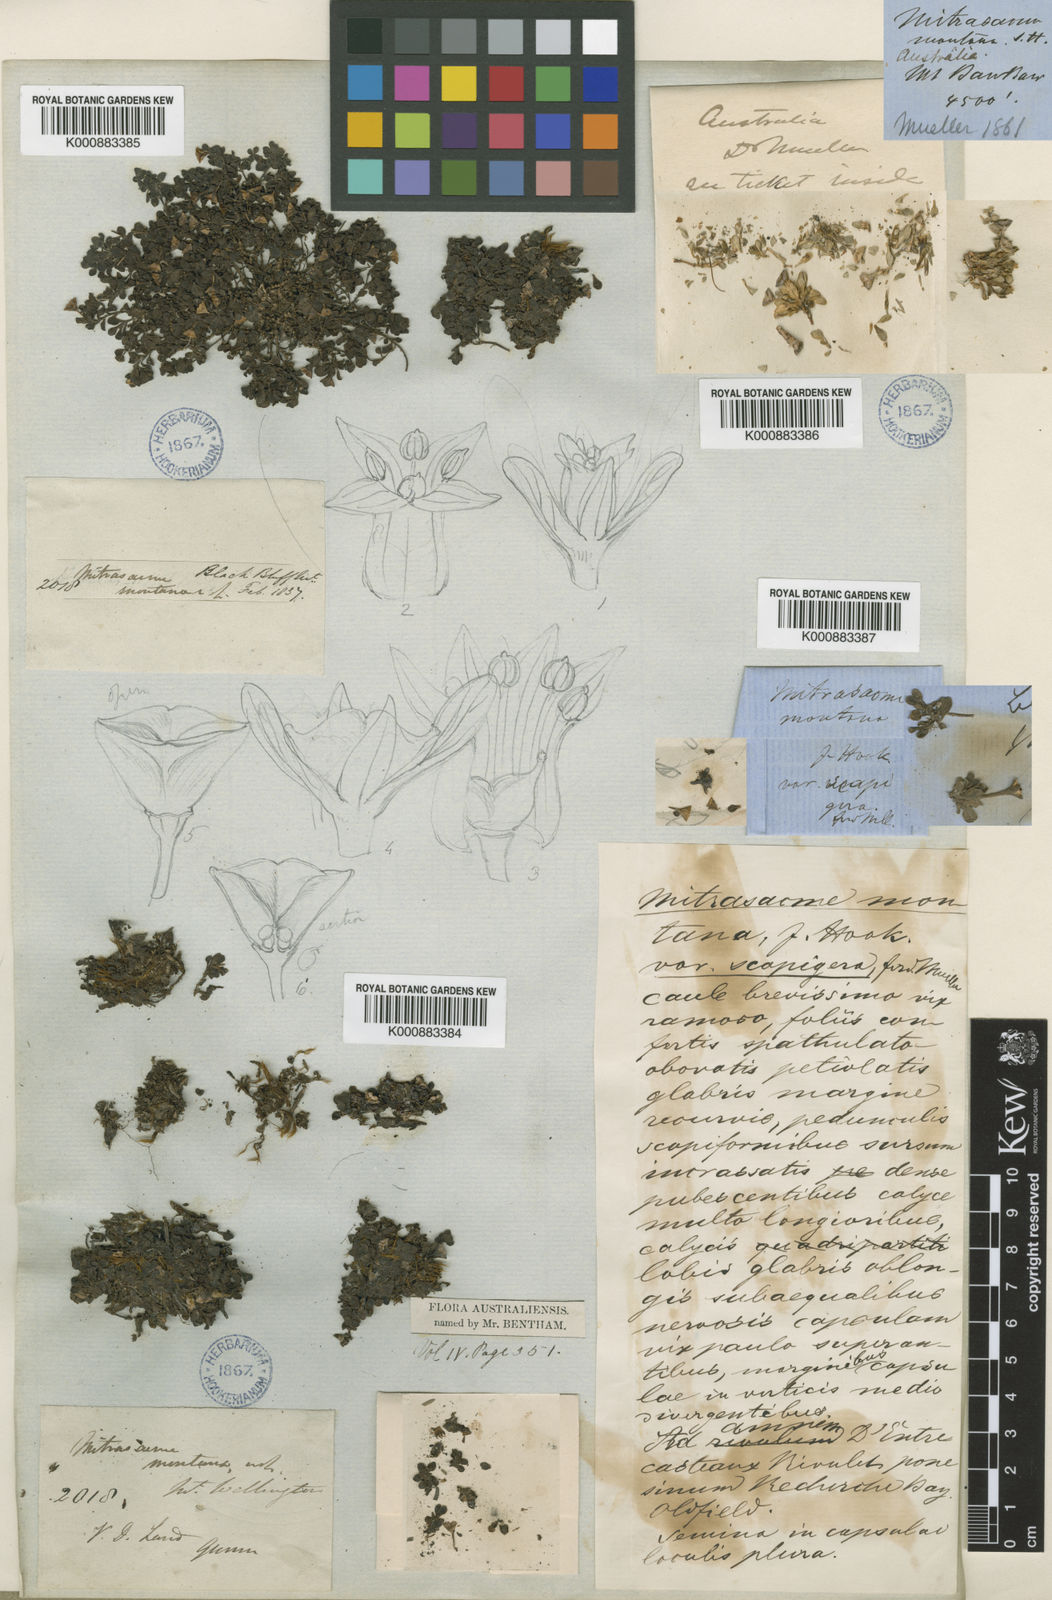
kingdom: Plantae
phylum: Tracheophyta
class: Magnoliopsida
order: Gentianales
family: Loganiaceae
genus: Schizacme
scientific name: Schizacme montana
